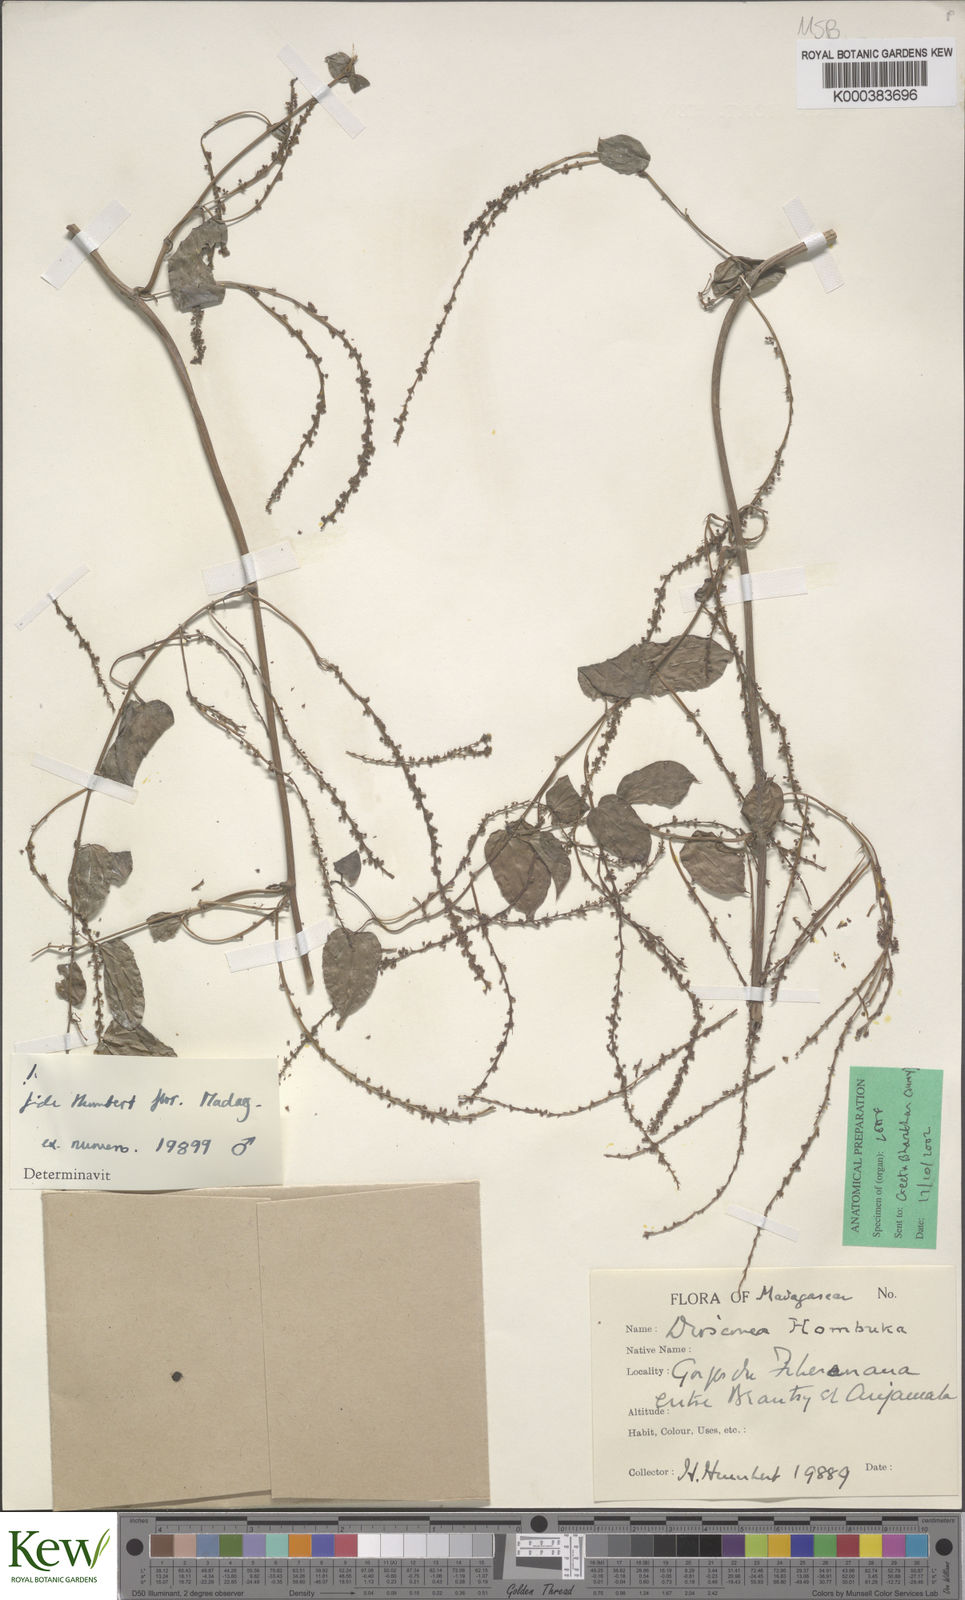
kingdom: Plantae
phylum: Tracheophyta
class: Liliopsida
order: Dioscoreales
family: Dioscoreaceae
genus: Dioscorea
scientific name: Dioscorea
